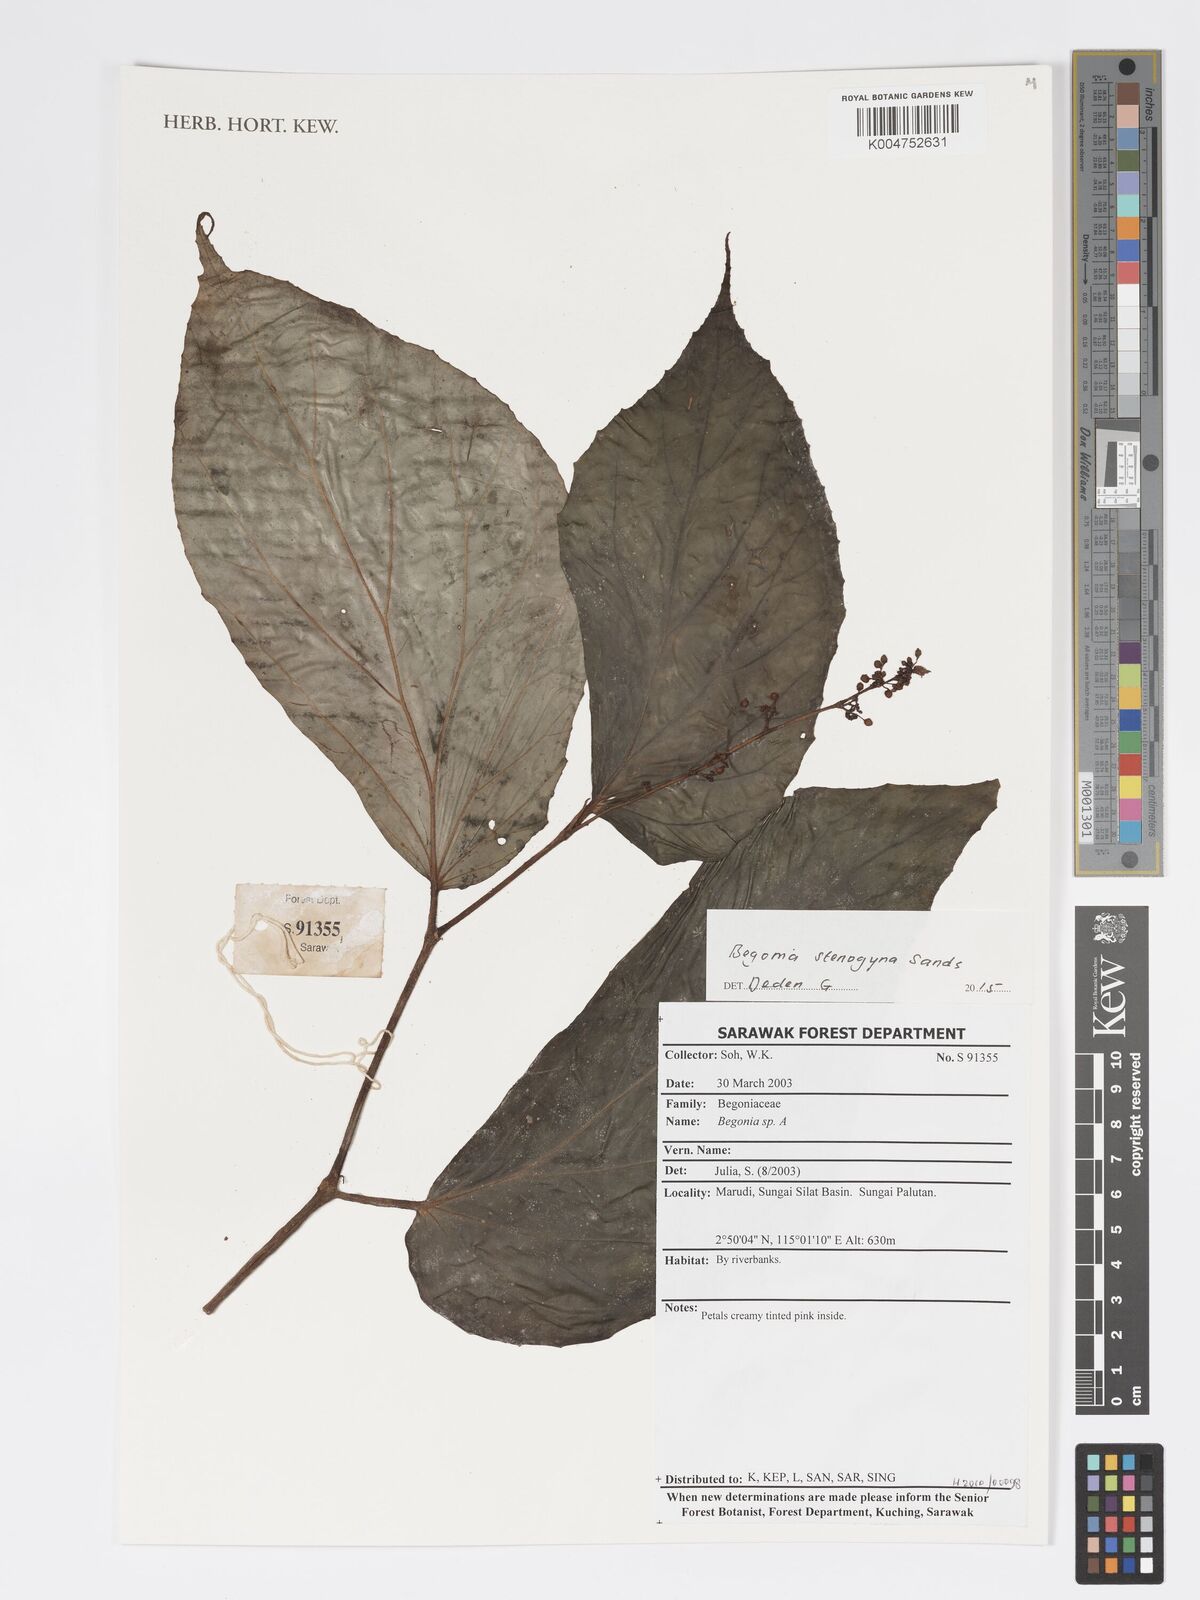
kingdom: Plantae
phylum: Tracheophyta
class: Magnoliopsida
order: Cucurbitales
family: Begoniaceae
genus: Begonia
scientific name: Begonia stenogyna
